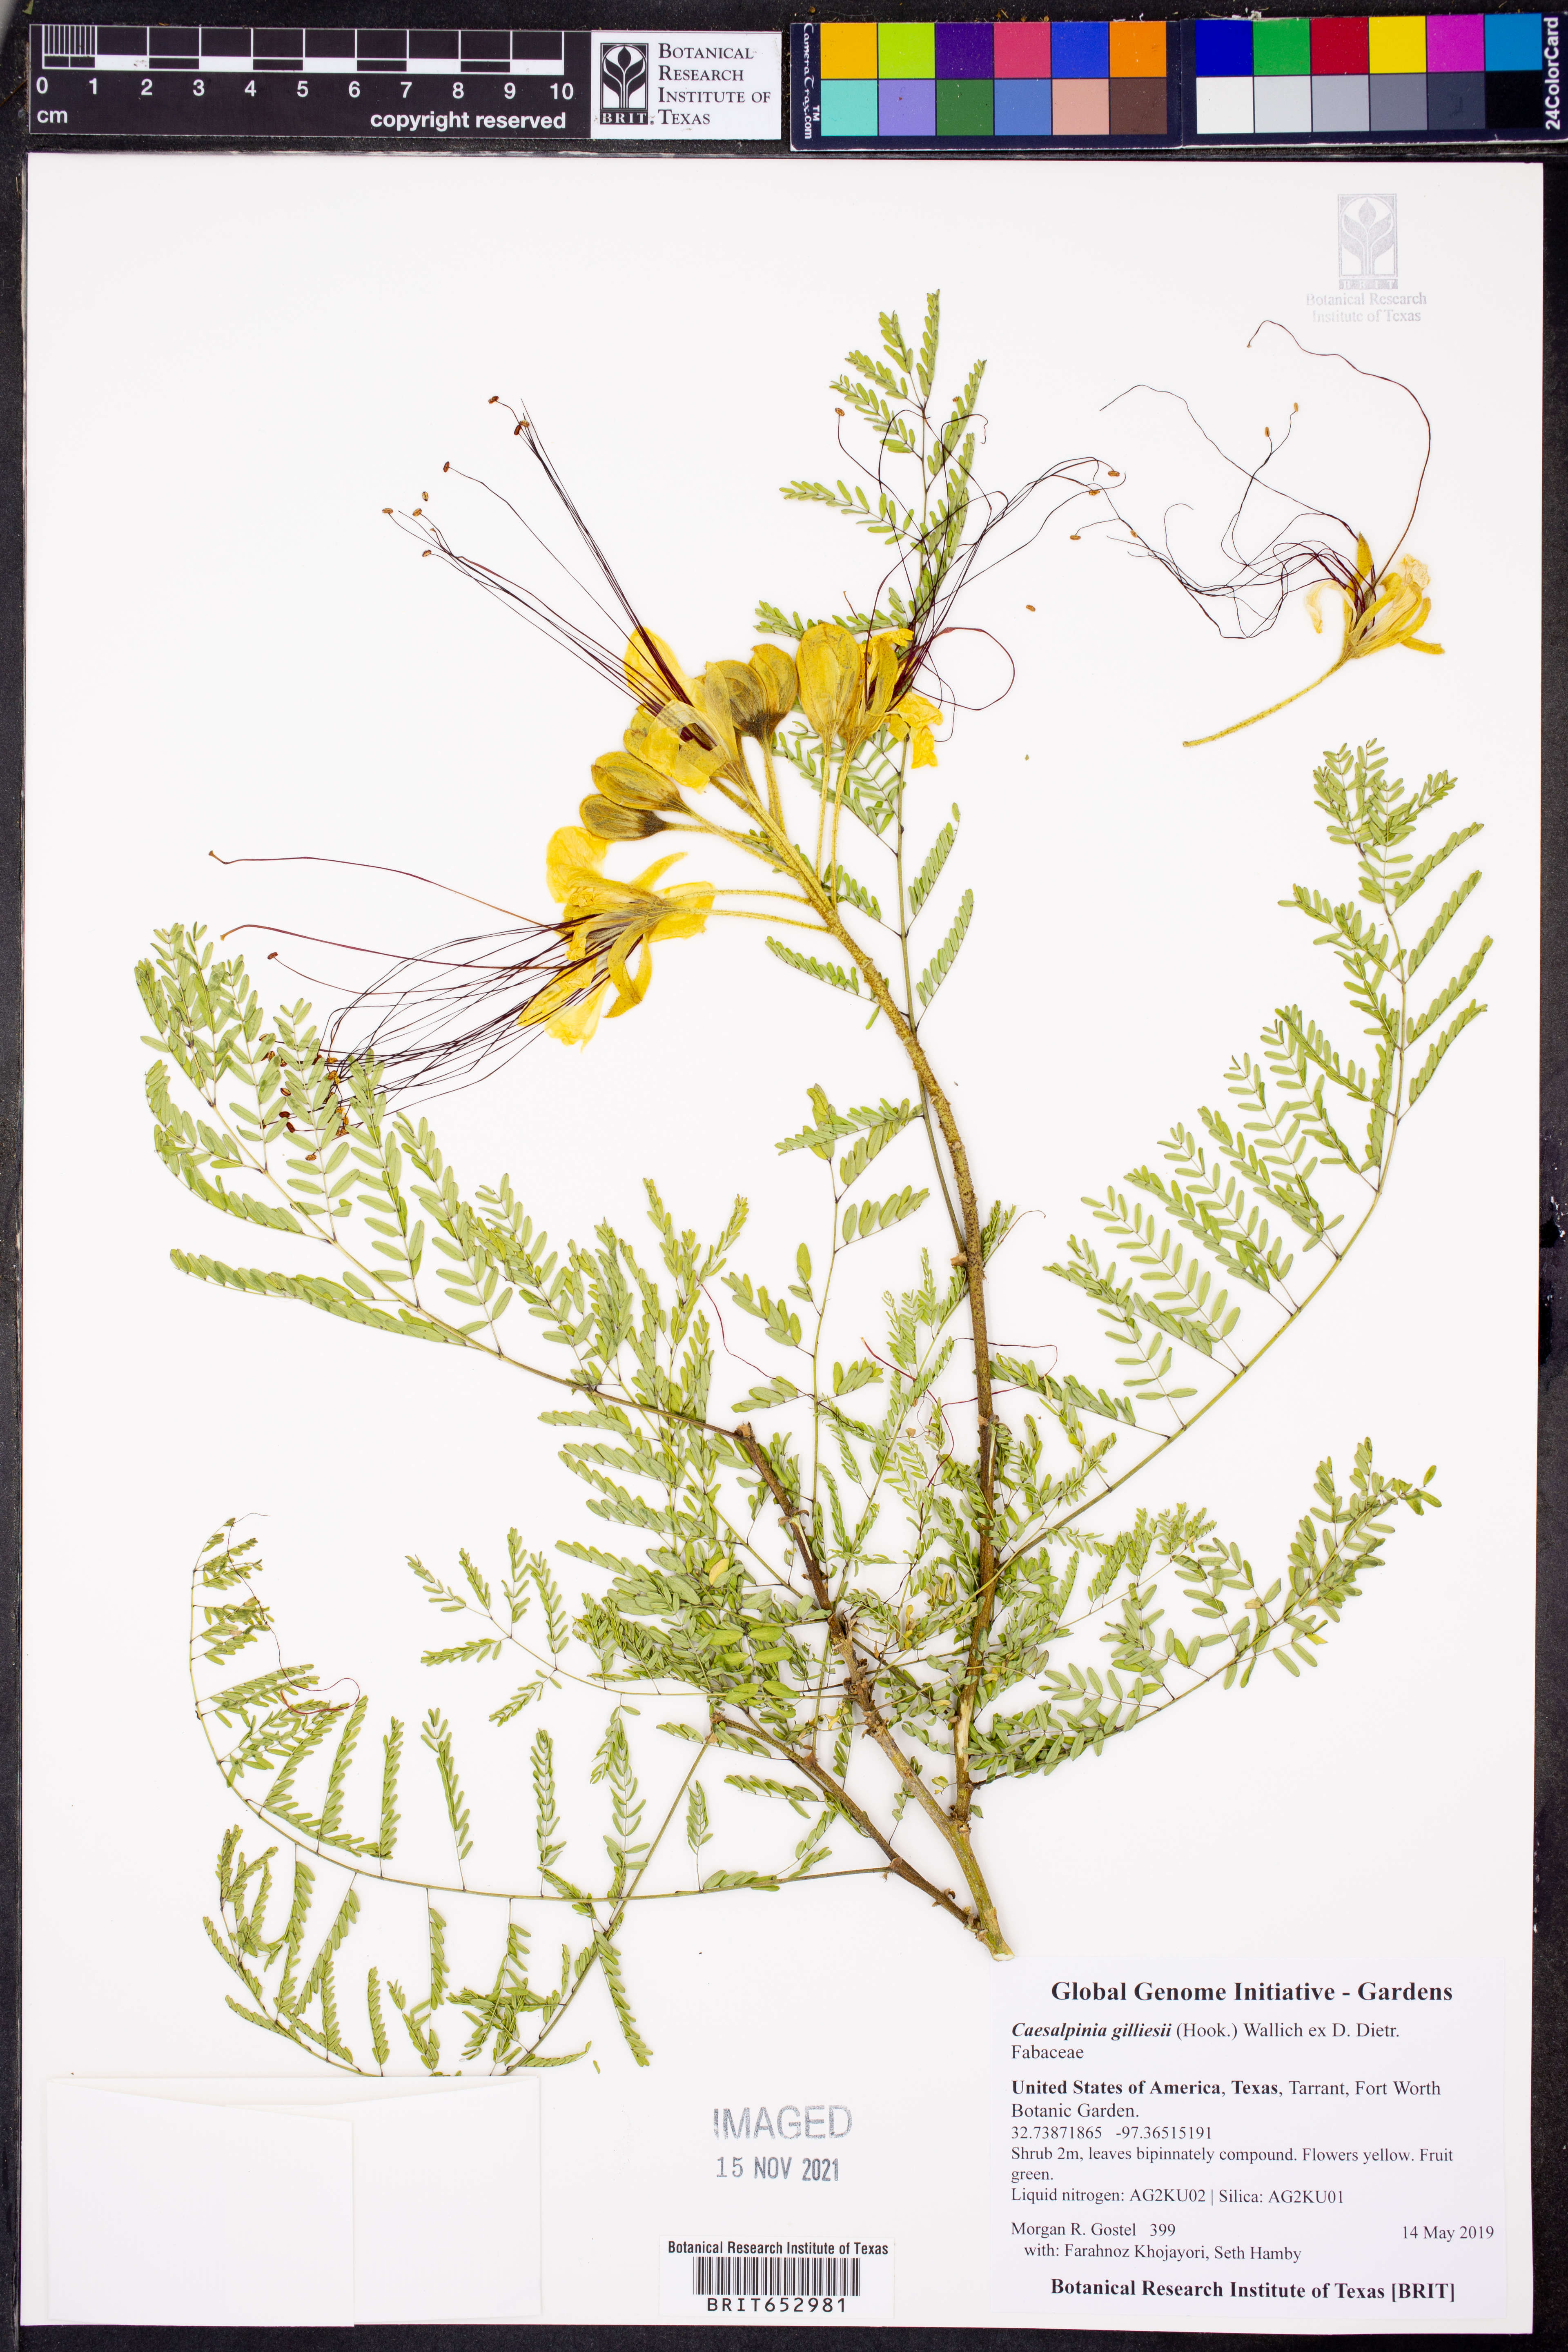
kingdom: Plantae
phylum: Tracheophyta
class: Magnoliopsida
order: Fabales
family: Fabaceae
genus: Erythrostemon
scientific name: Erythrostemon gilliesii
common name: Bird-of-paradise shrub
